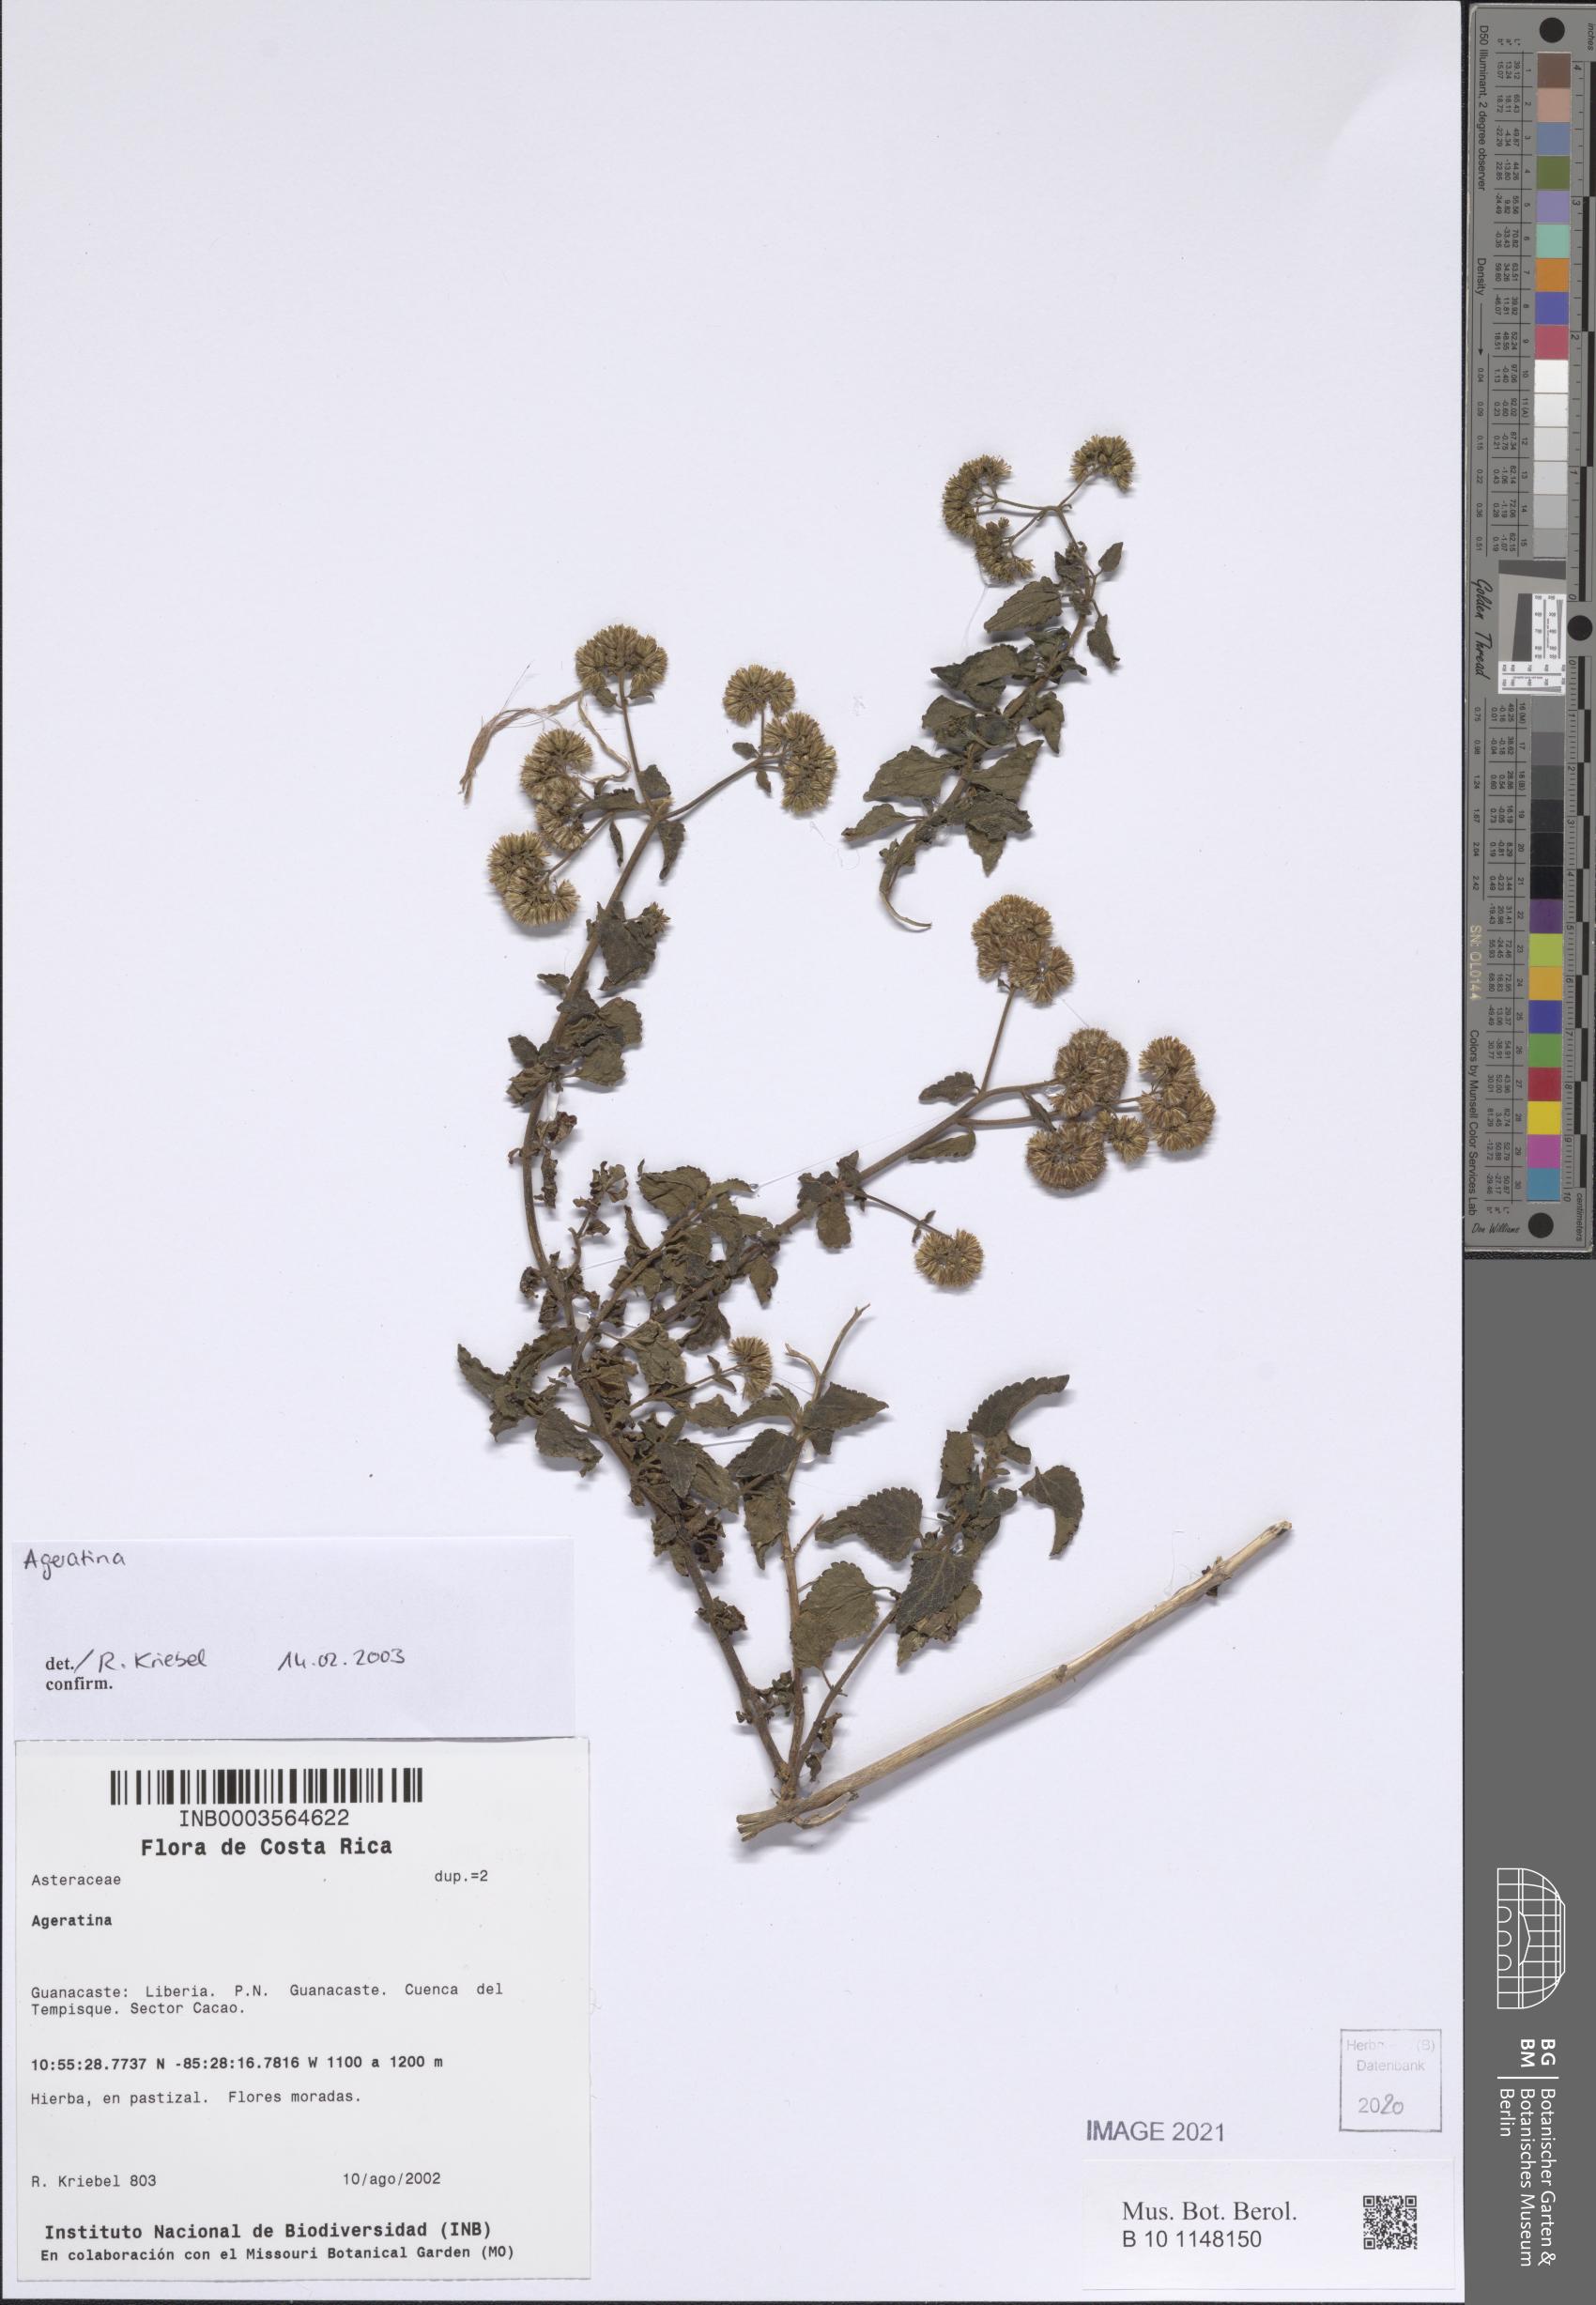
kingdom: Plantae
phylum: Tracheophyta
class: Magnoliopsida
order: Asterales
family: Asteraceae
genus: Ageratina
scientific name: Ageratina
